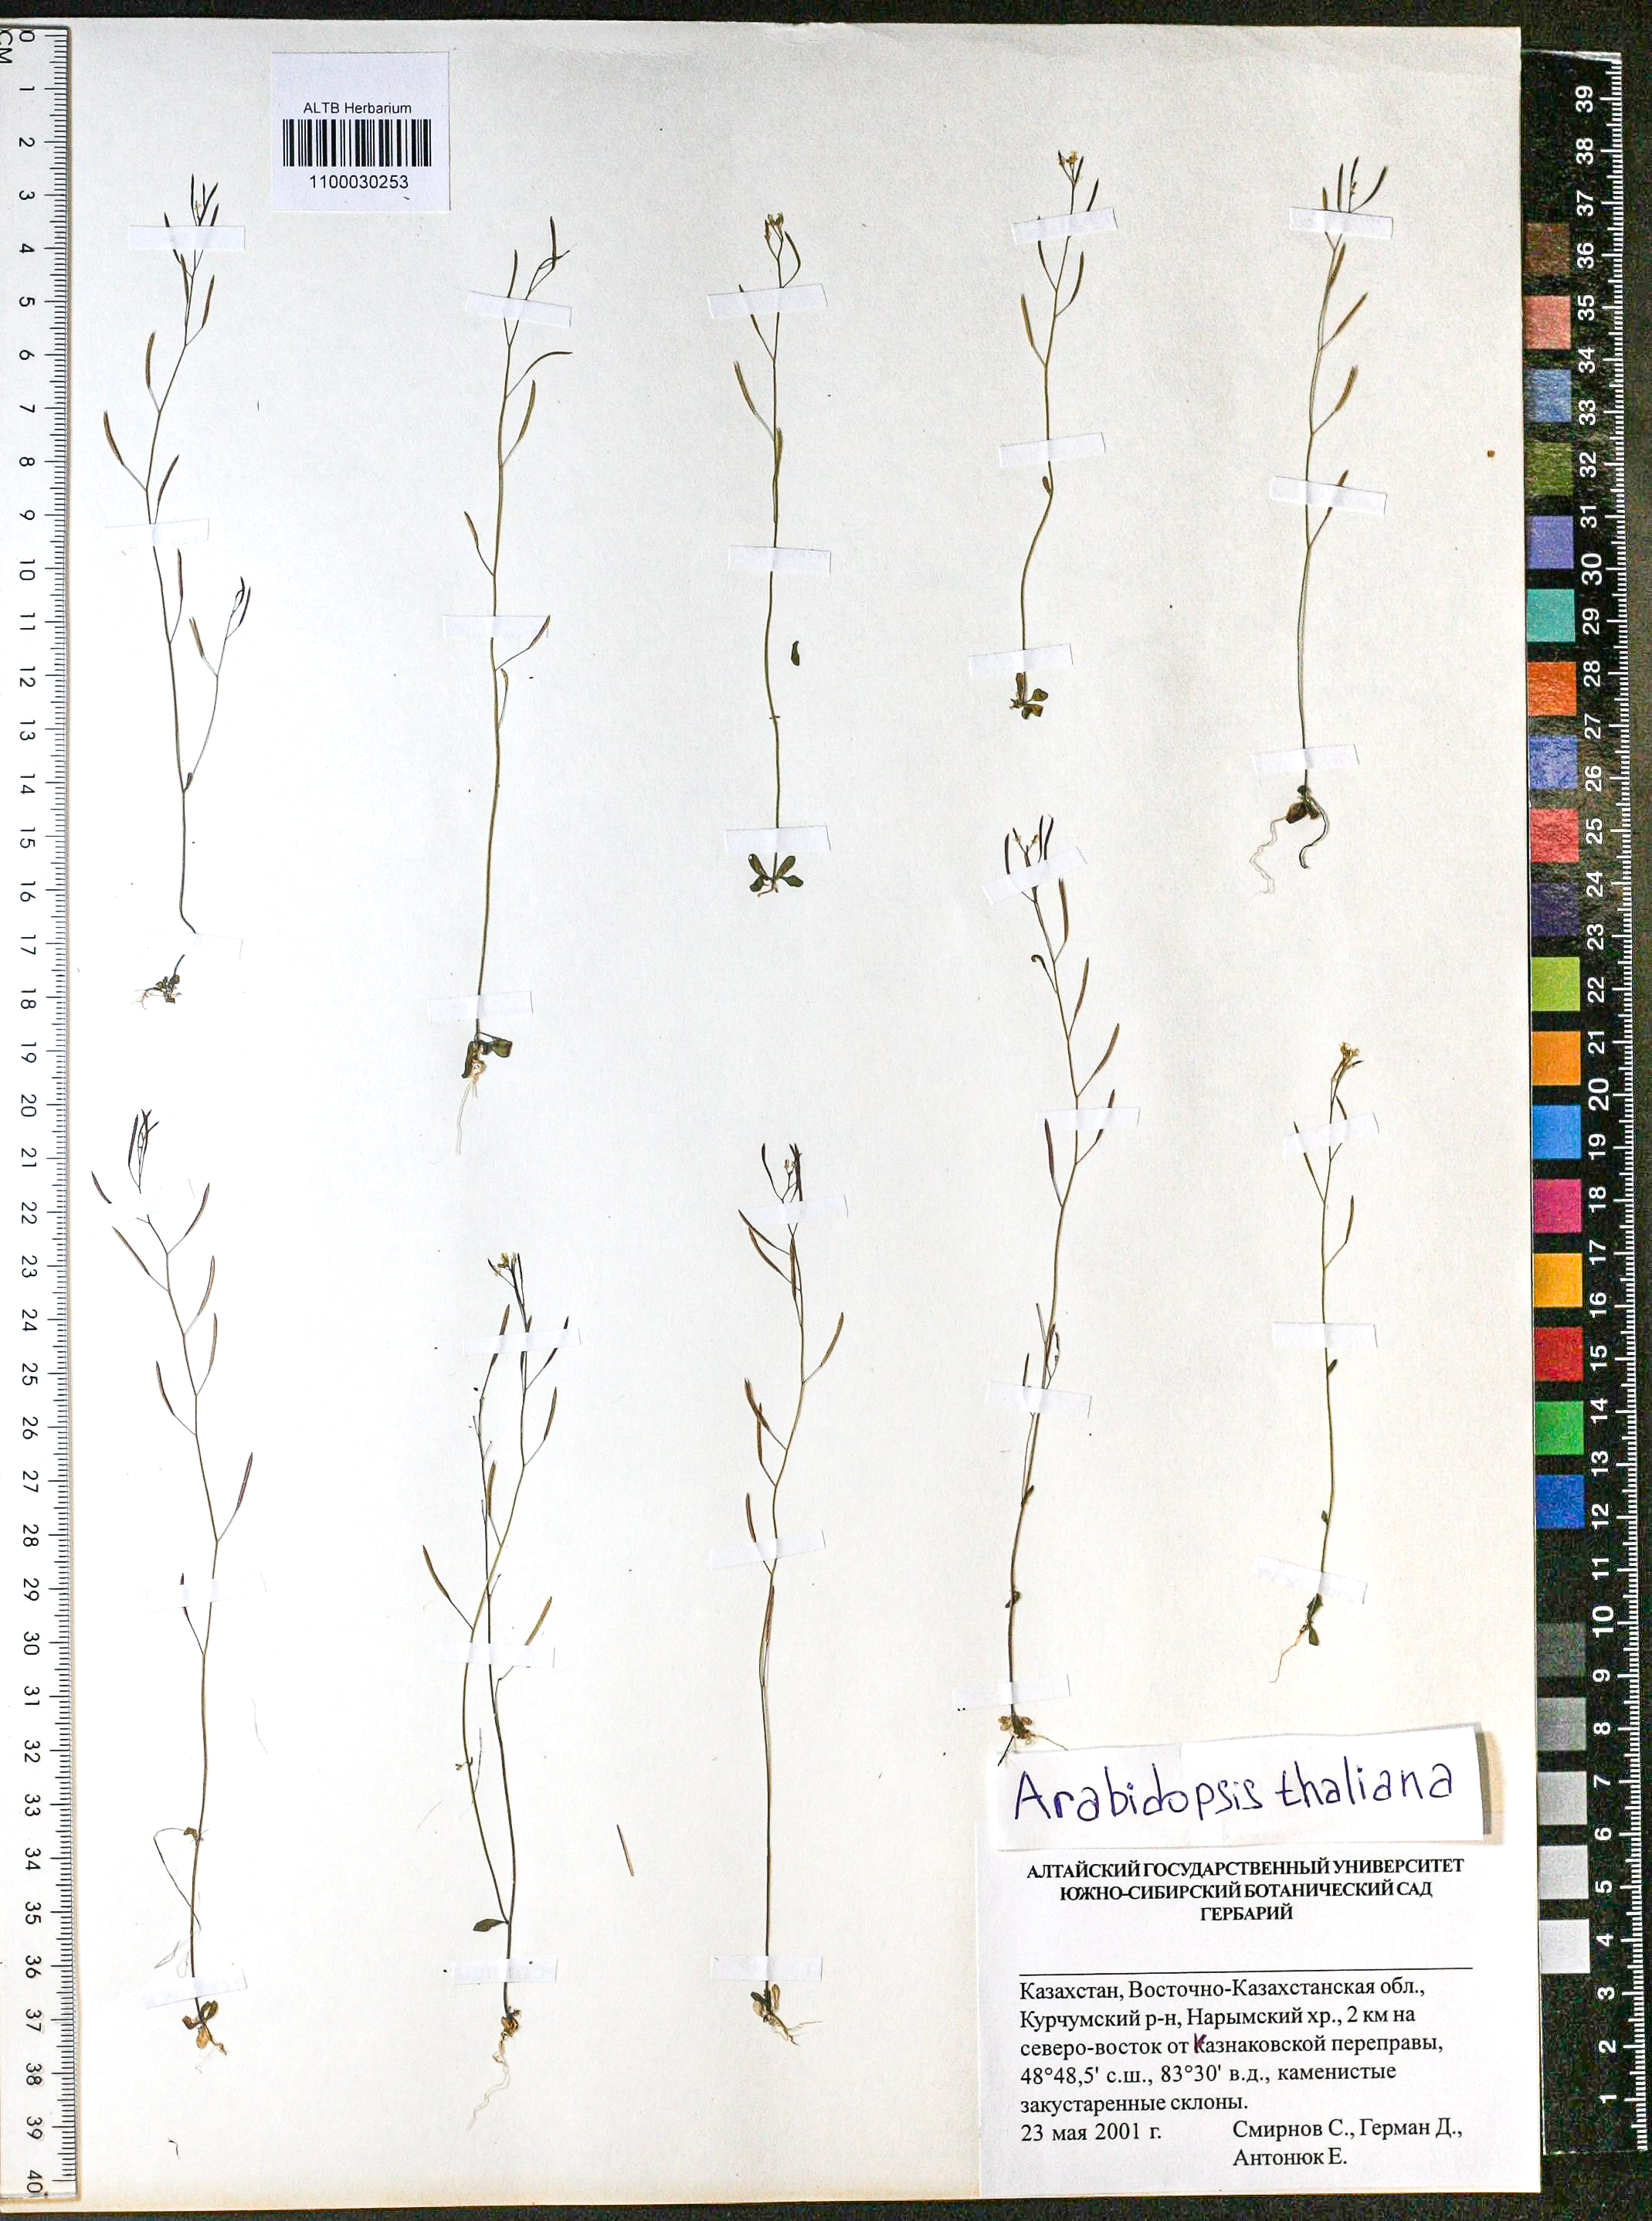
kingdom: Plantae
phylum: Tracheophyta
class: Magnoliopsida
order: Brassicales
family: Brassicaceae
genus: Arabidopsis
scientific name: Arabidopsis thaliana
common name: Thale cress
